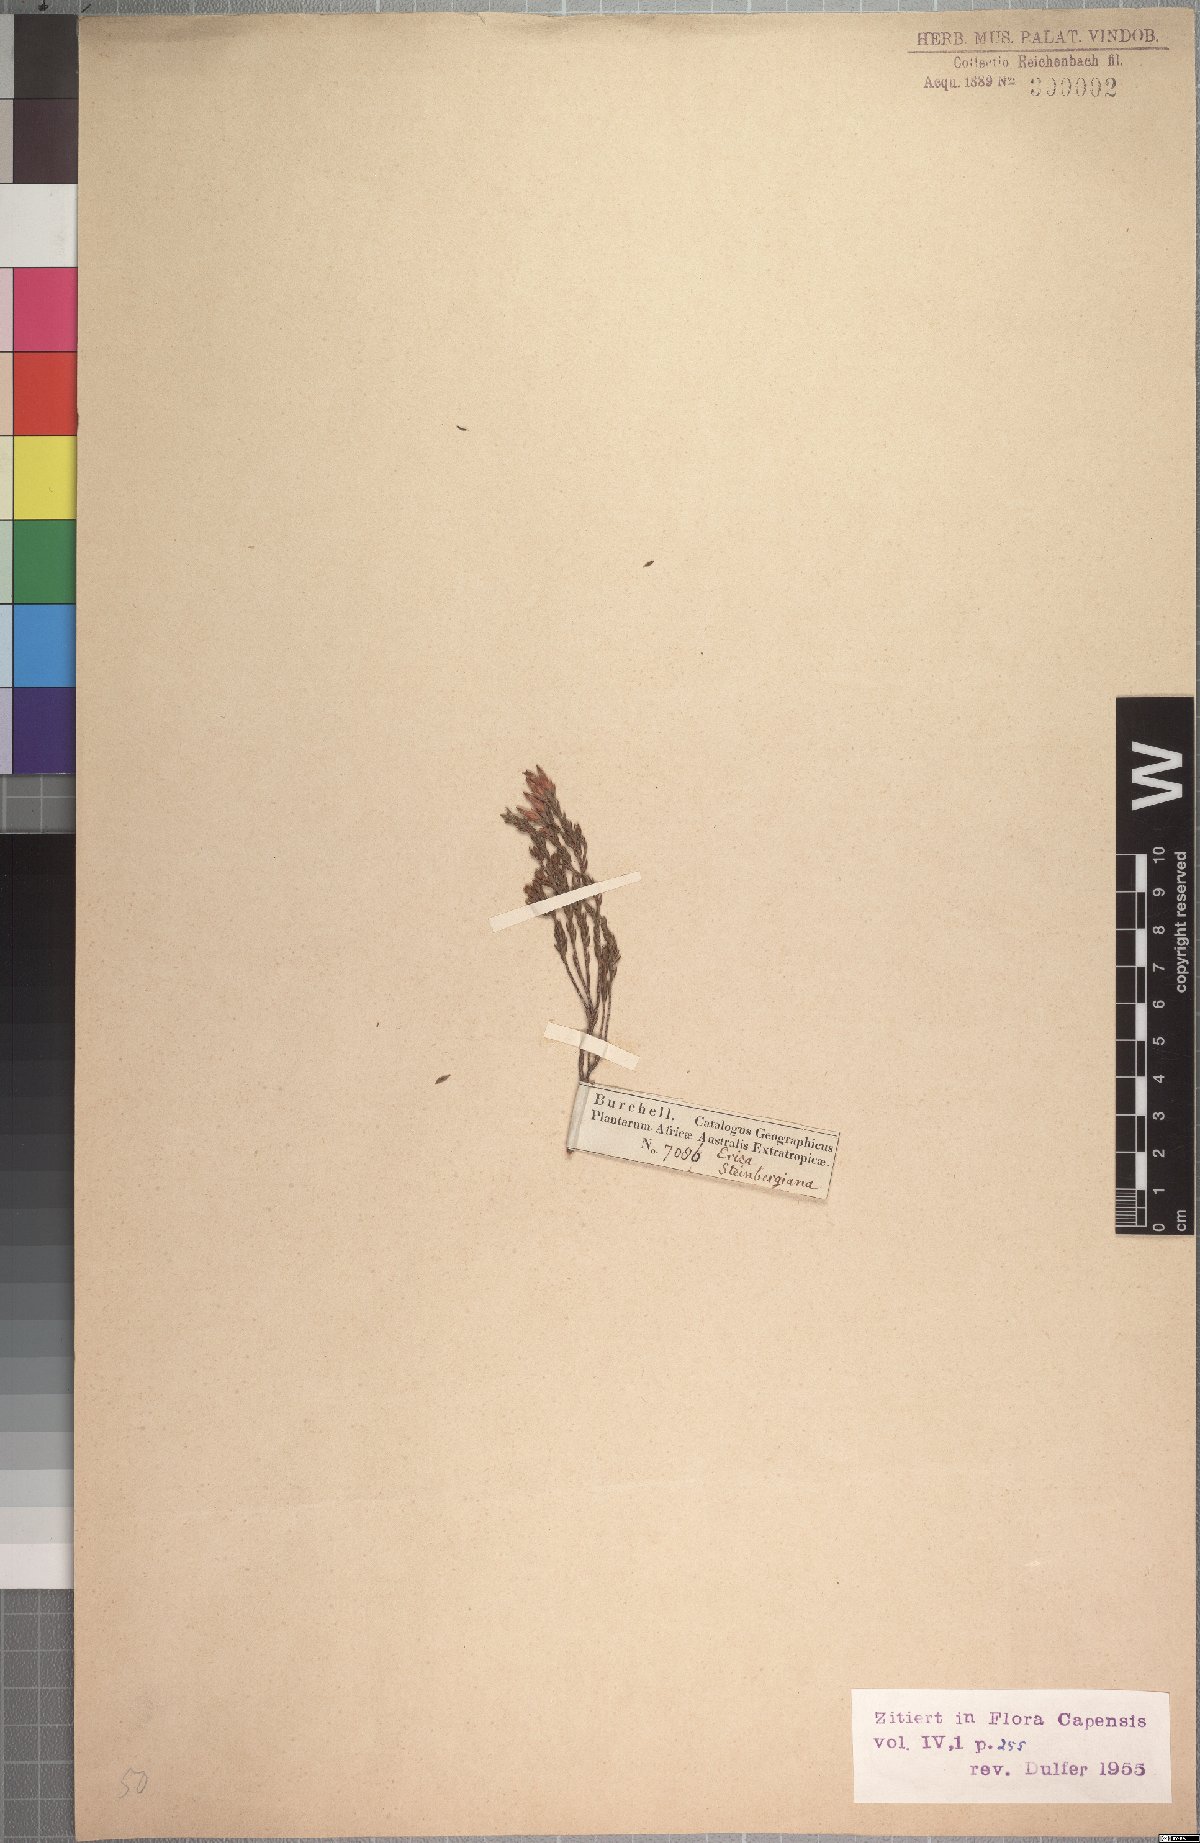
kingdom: Plantae
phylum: Tracheophyta
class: Magnoliopsida
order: Ericales
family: Ericaceae
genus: Erica
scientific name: Erica steinbergiana
